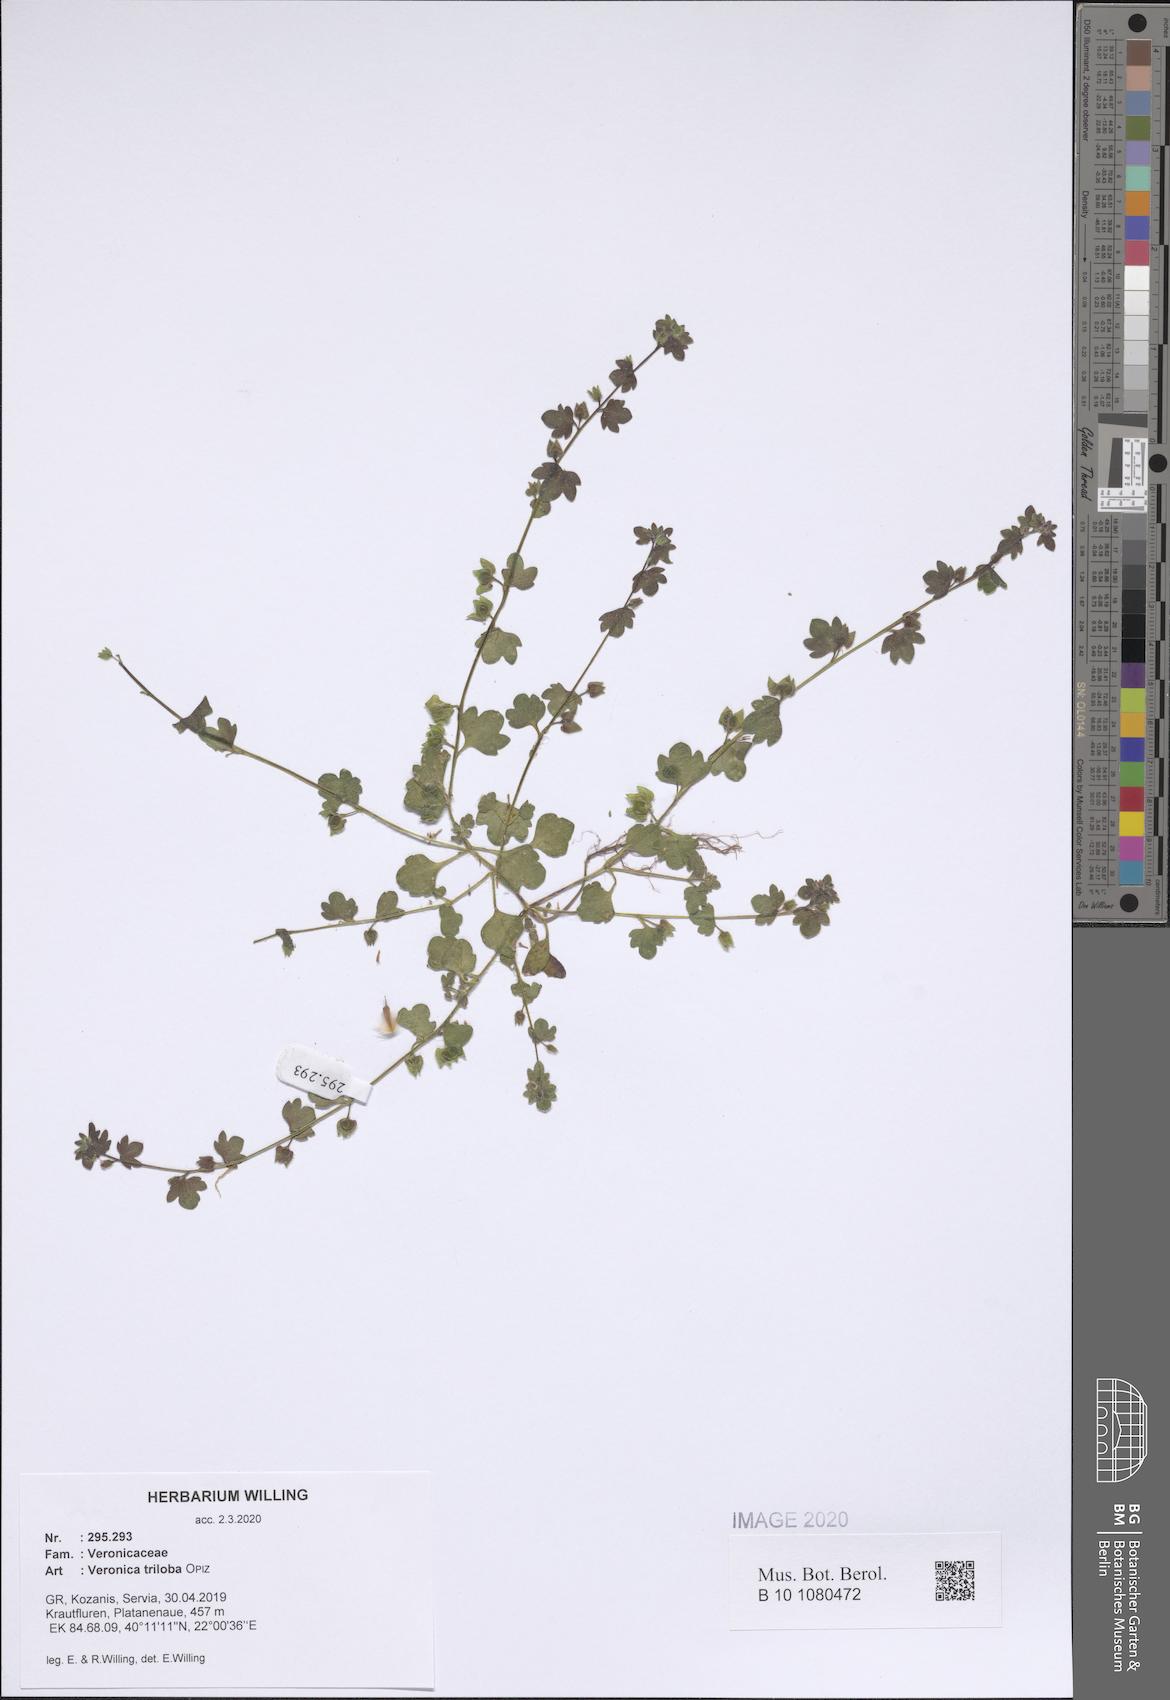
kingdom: Plantae
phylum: Tracheophyta
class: Magnoliopsida
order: Lamiales
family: Plantaginaceae
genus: Veronica
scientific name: Veronica triloba
